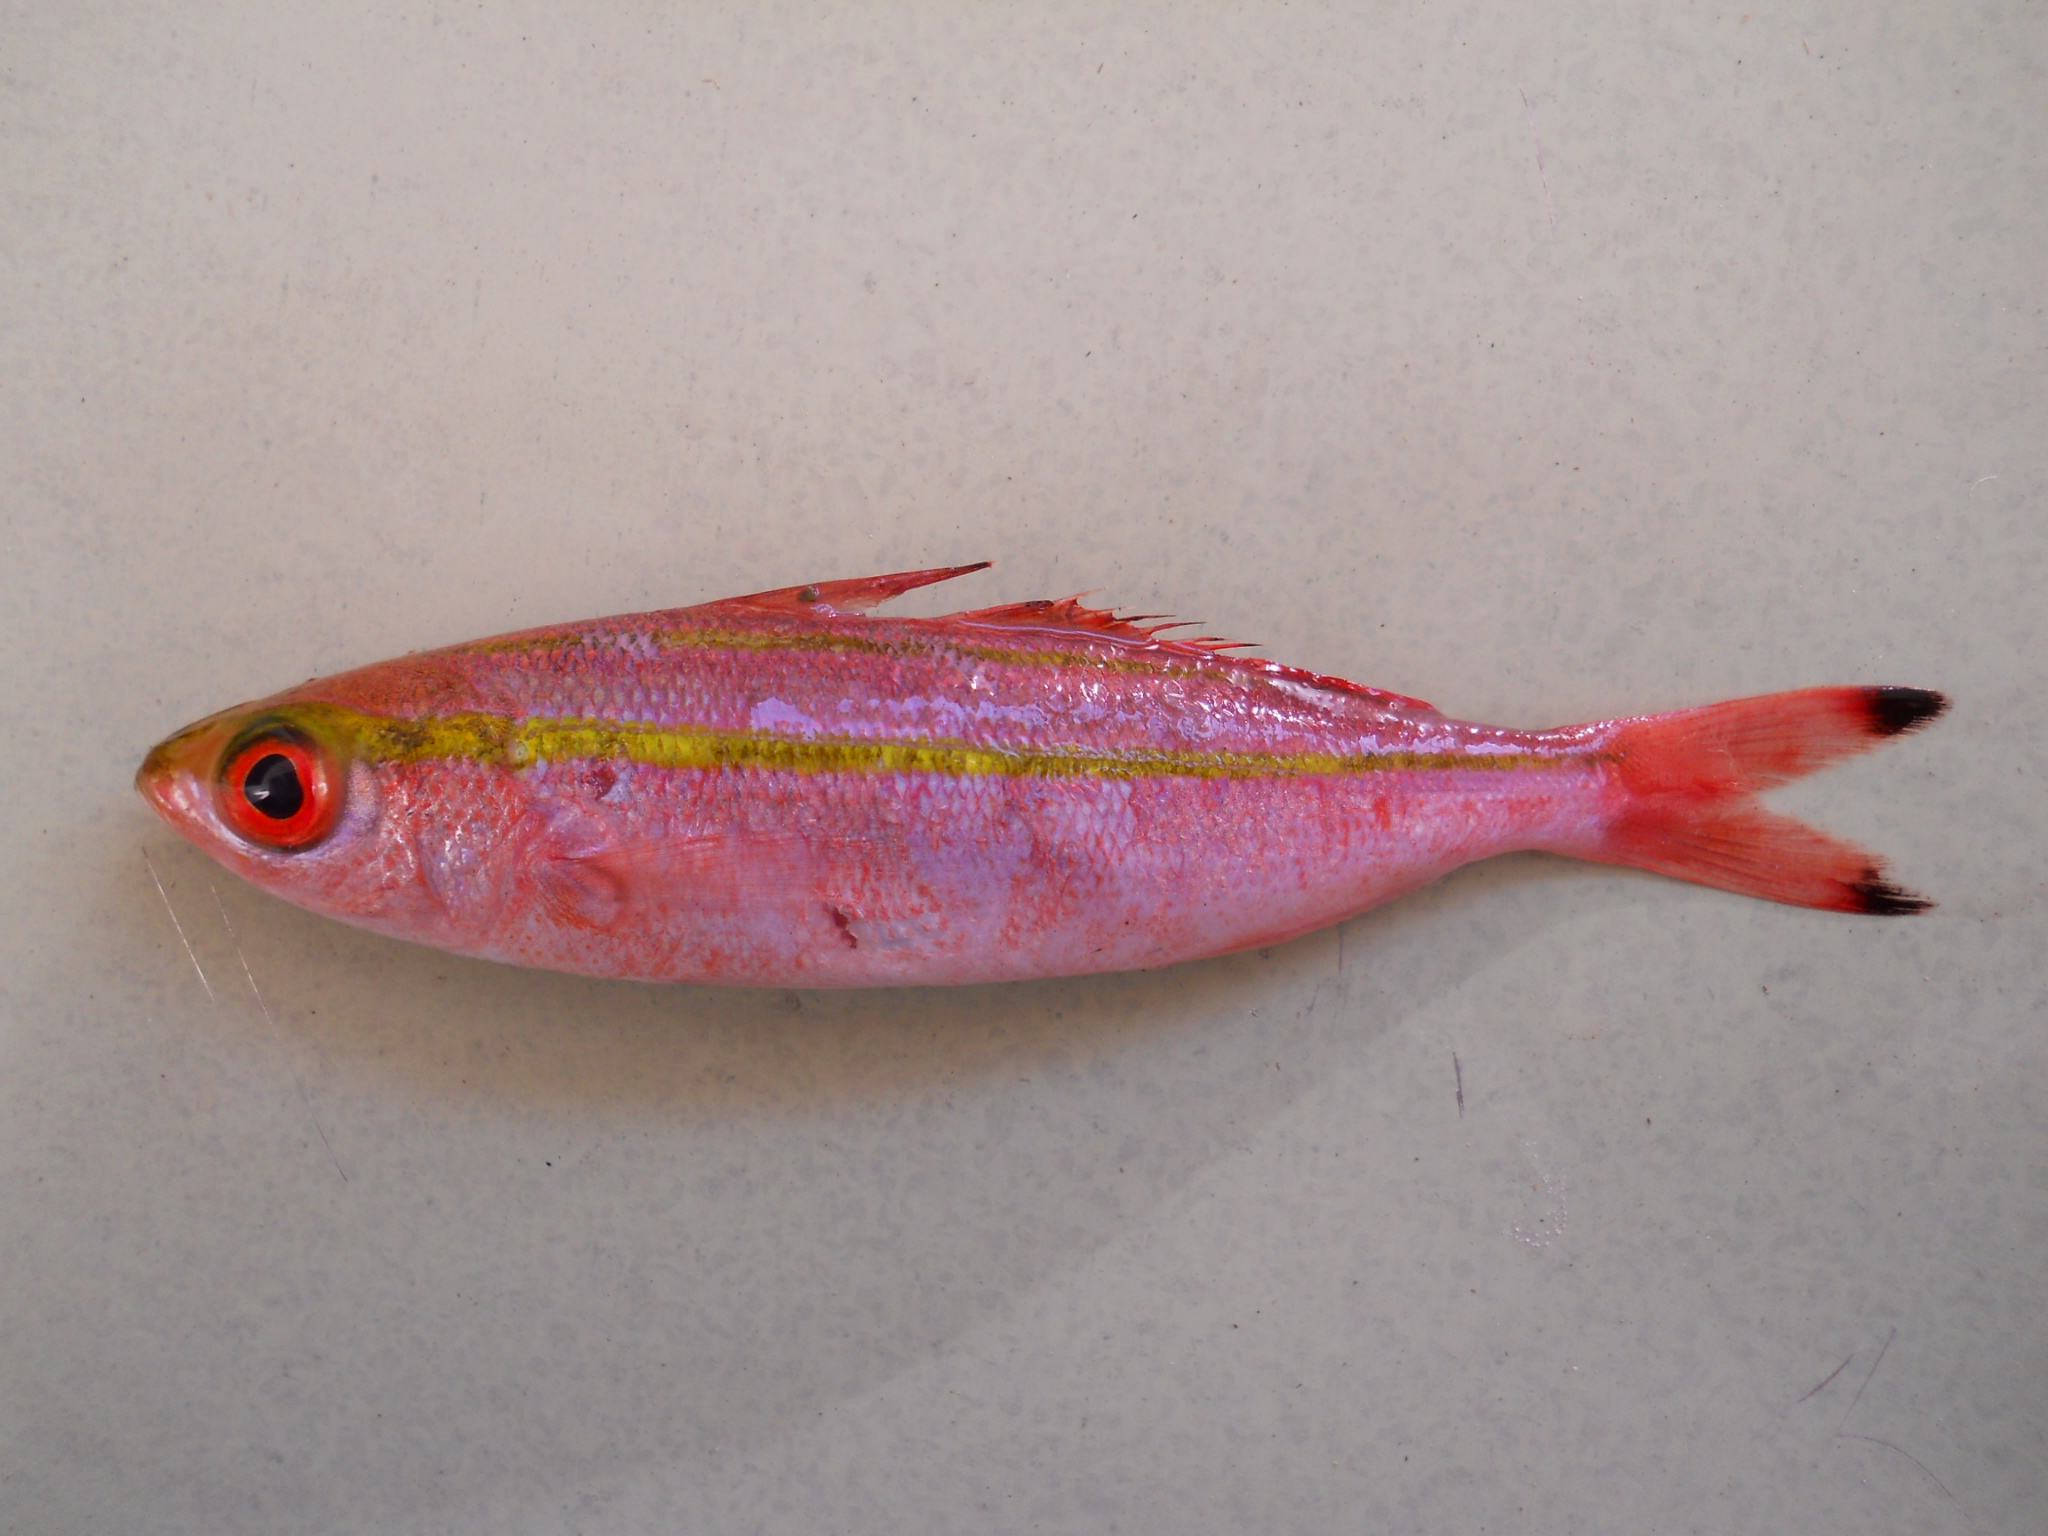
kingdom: Animalia
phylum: Chordata
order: Perciformes
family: Caesionidae
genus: Pterocaesio
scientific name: Pterocaesio marri
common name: Marr's fusilier
